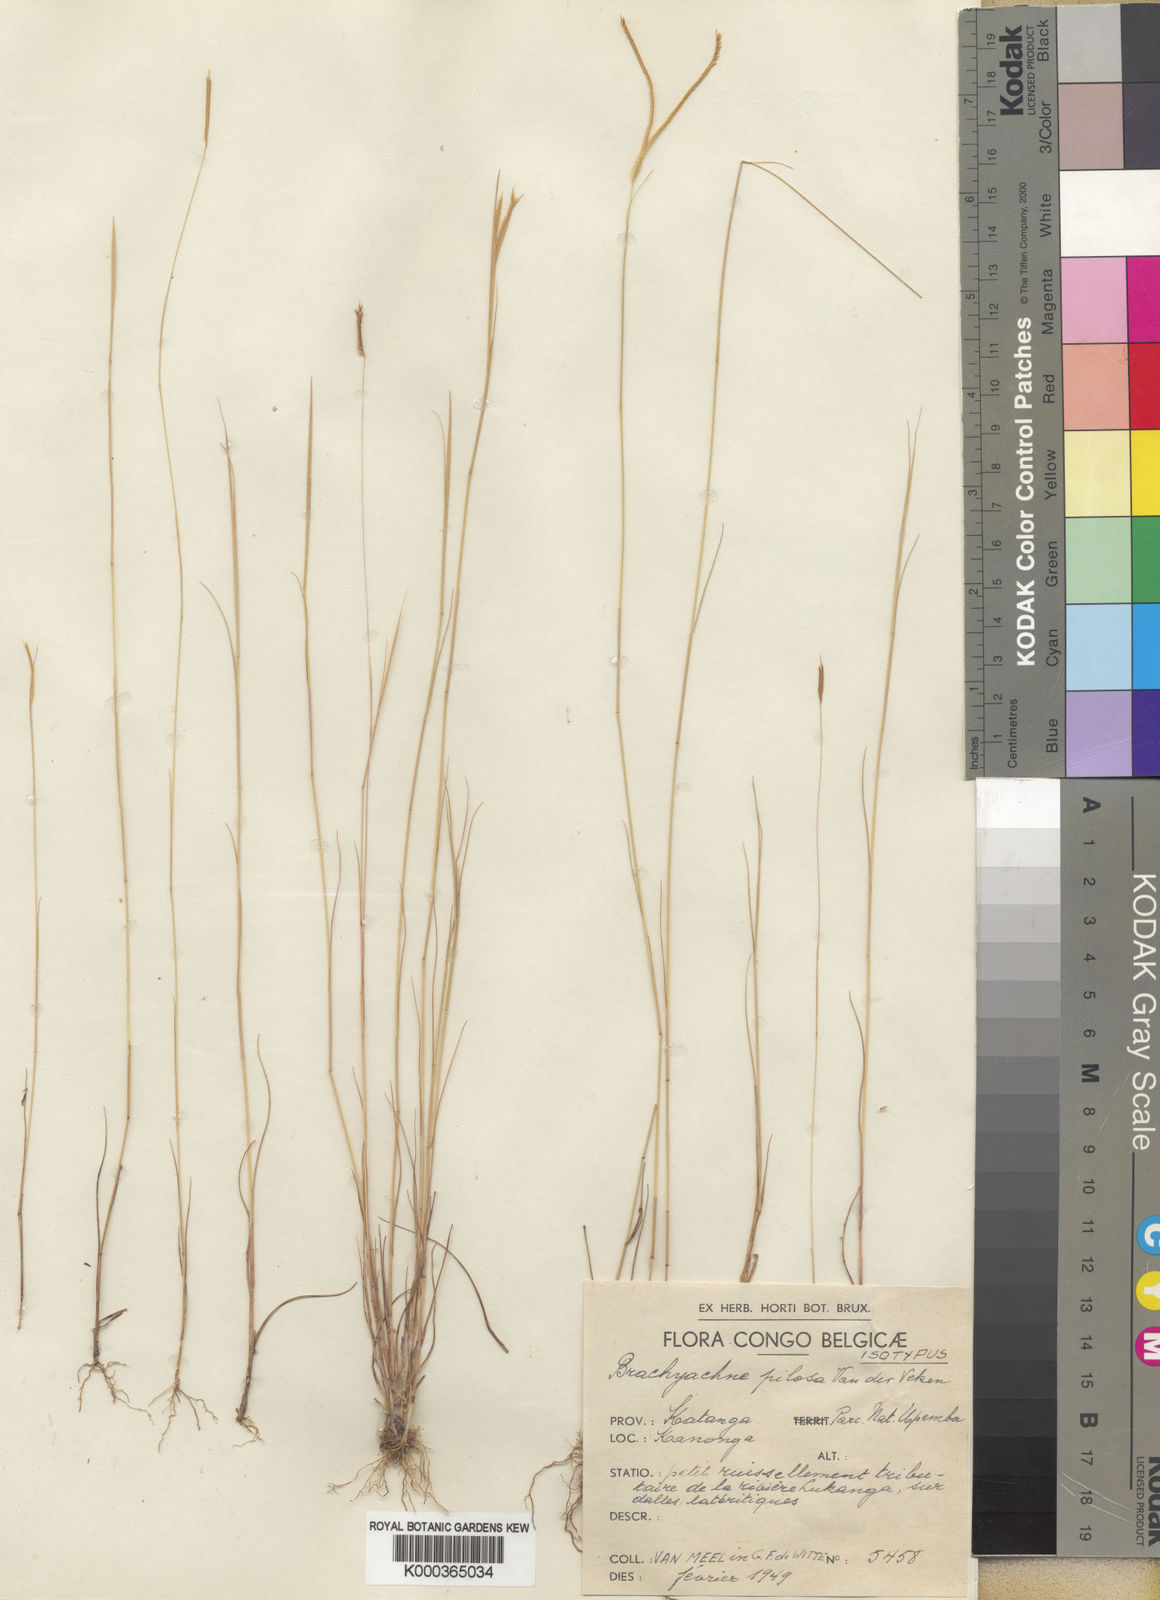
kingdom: Plantae
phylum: Tracheophyta
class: Liliopsida
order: Poales
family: Poaceae
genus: Micrachne
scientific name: Micrachne pilosa
